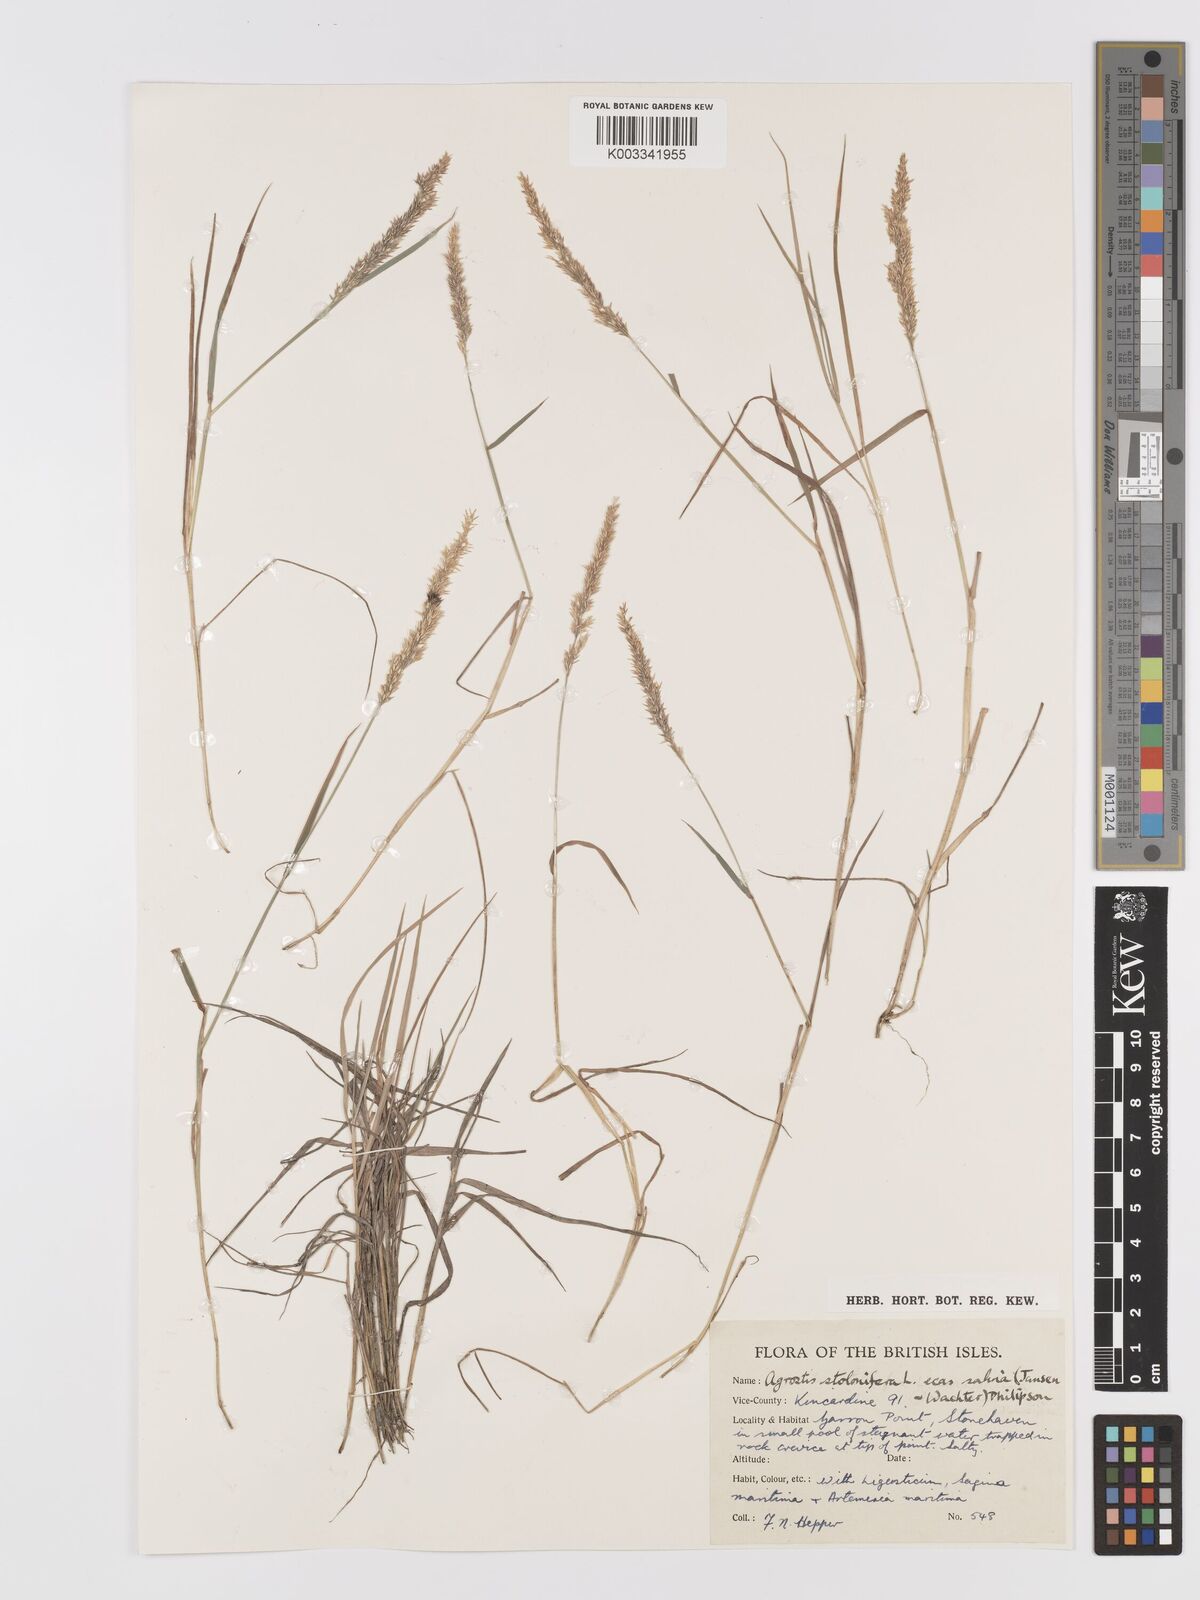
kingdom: Plantae
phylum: Tracheophyta
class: Liliopsida
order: Poales
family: Poaceae
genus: Agrostis
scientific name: Agrostis stolonifera
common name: Creeping bentgrass
